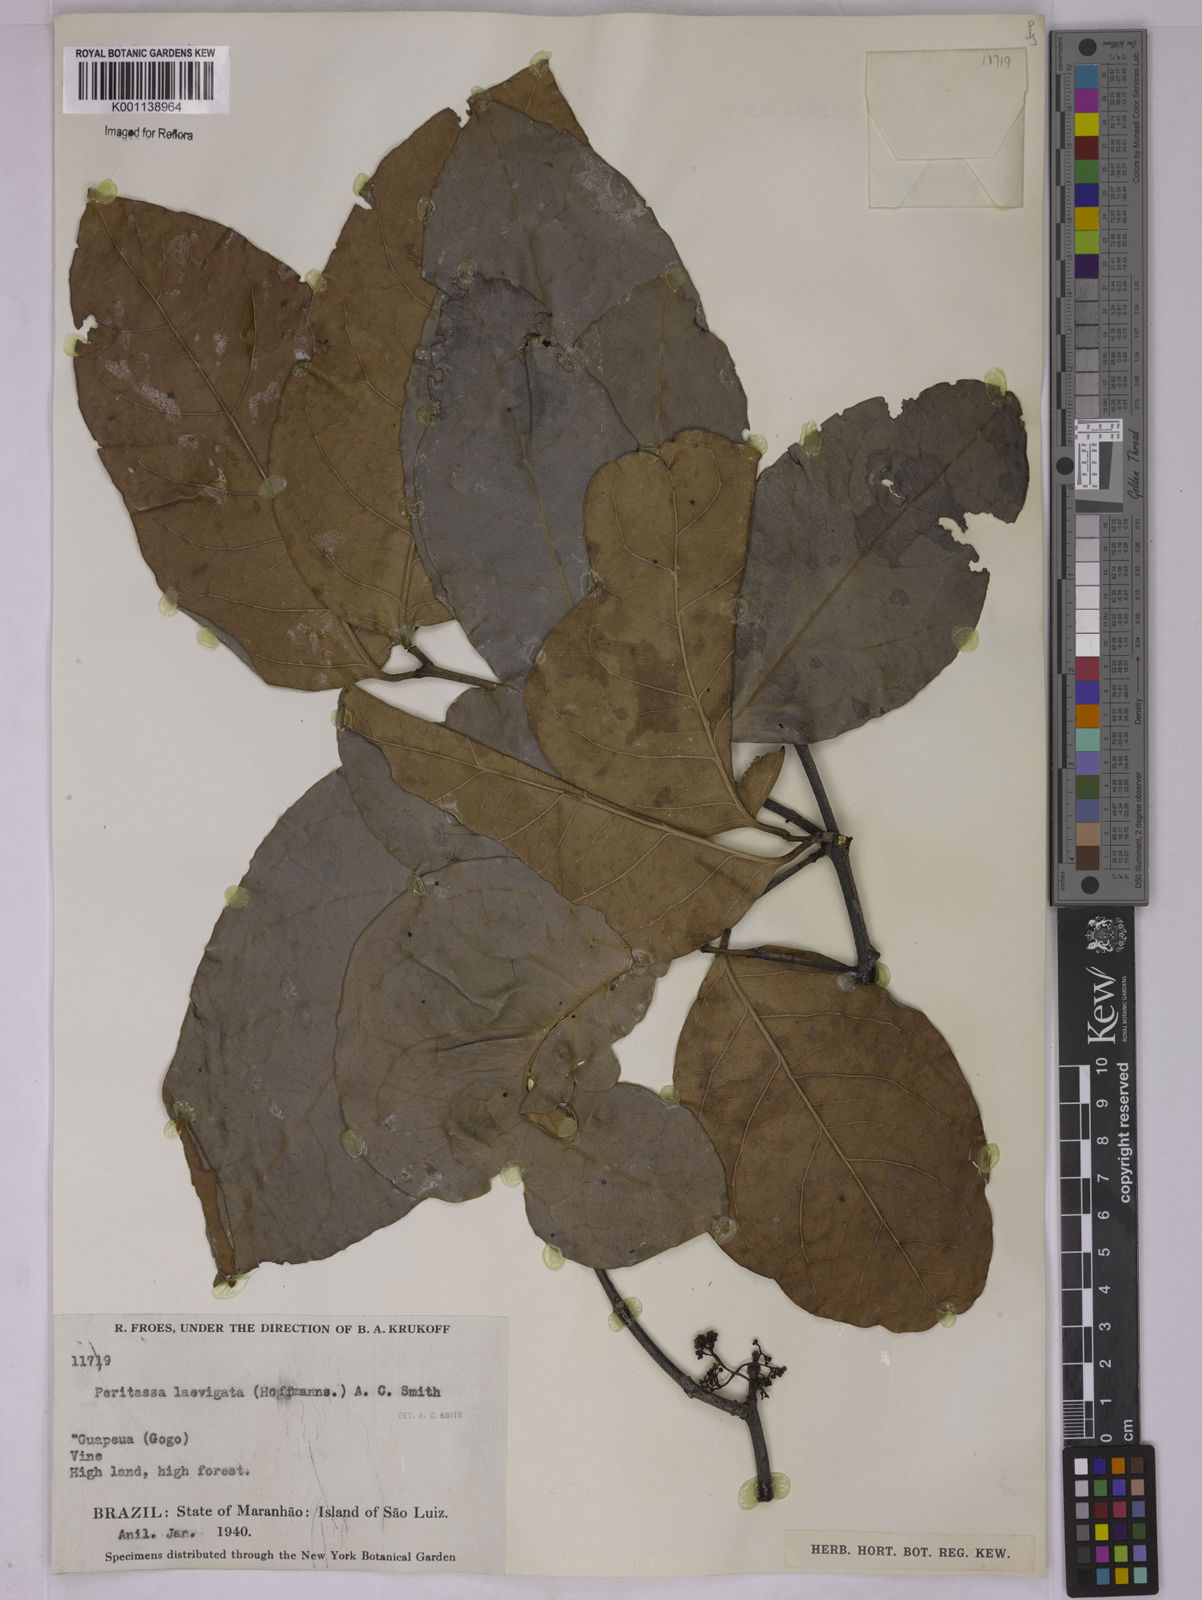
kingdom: Plantae
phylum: Tracheophyta
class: Magnoliopsida
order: Celastrales
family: Celastraceae
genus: Peritassa
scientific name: Peritassa laevigata
